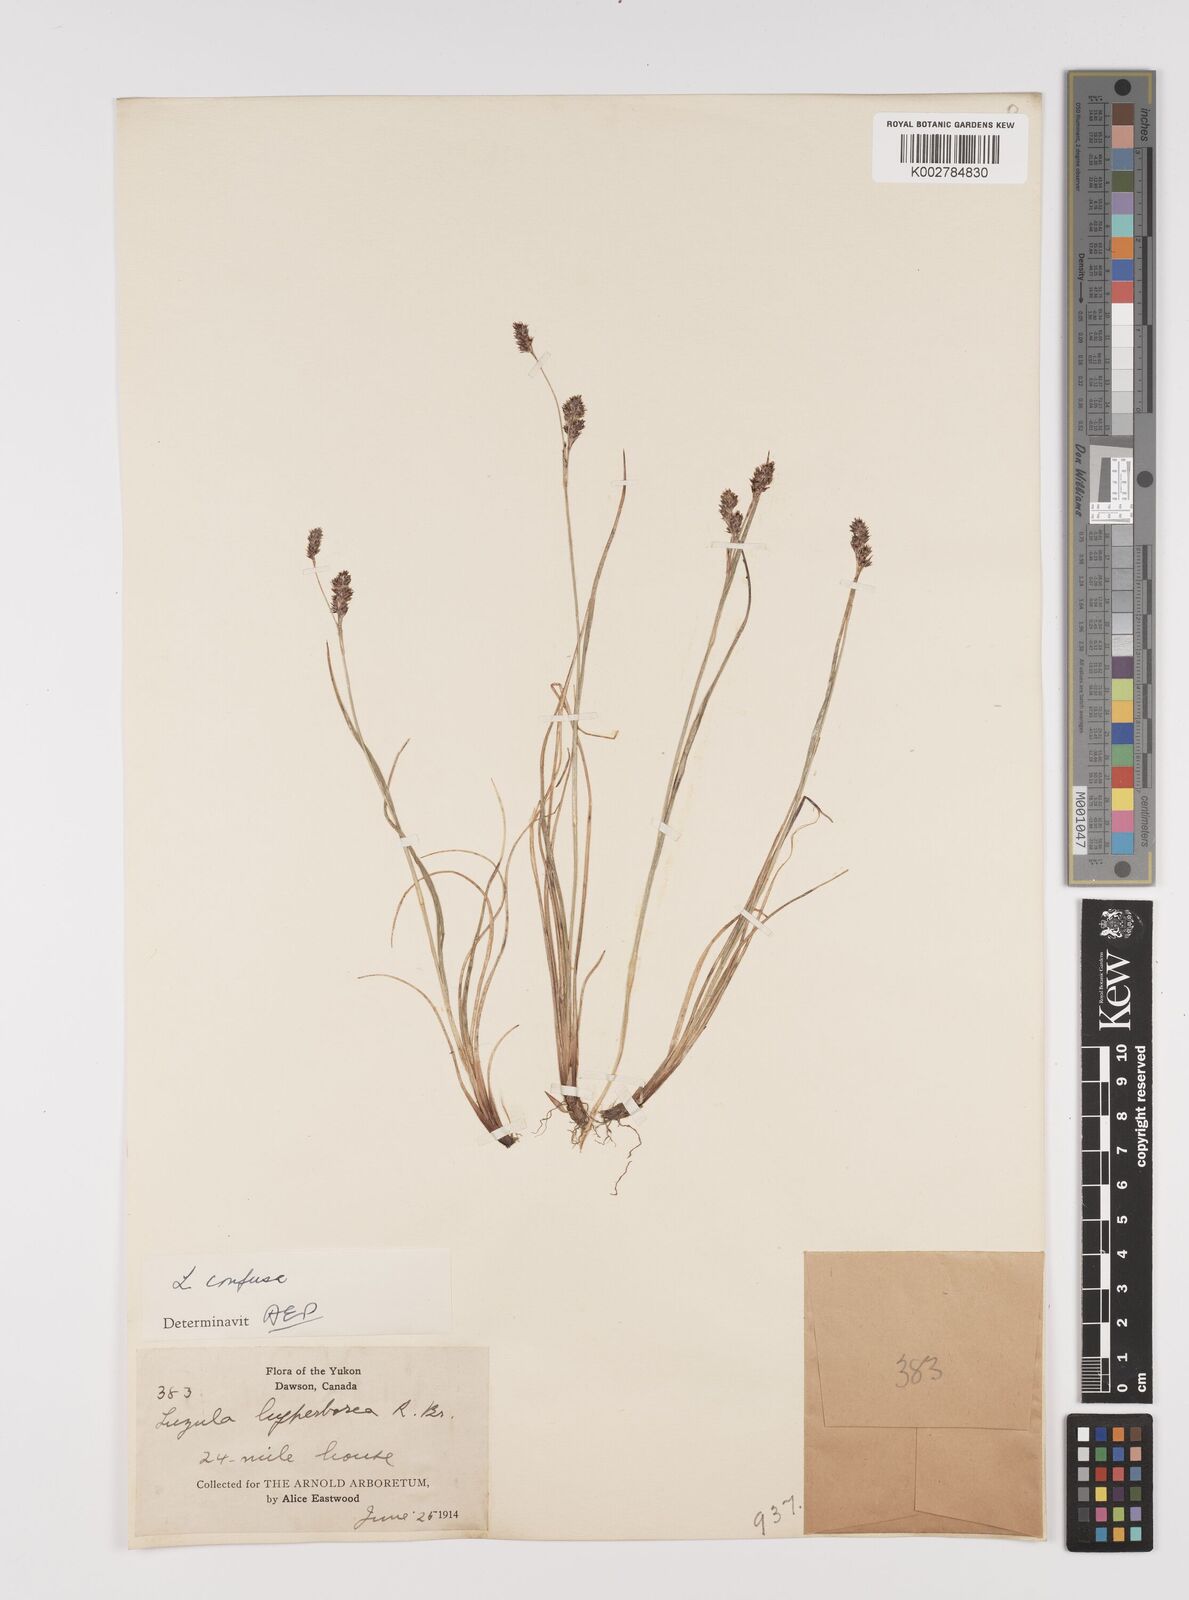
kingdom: Plantae
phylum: Tracheophyta
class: Liliopsida
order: Poales
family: Juncaceae
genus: Luzula
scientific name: Luzula confusa
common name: Northern wood rush
